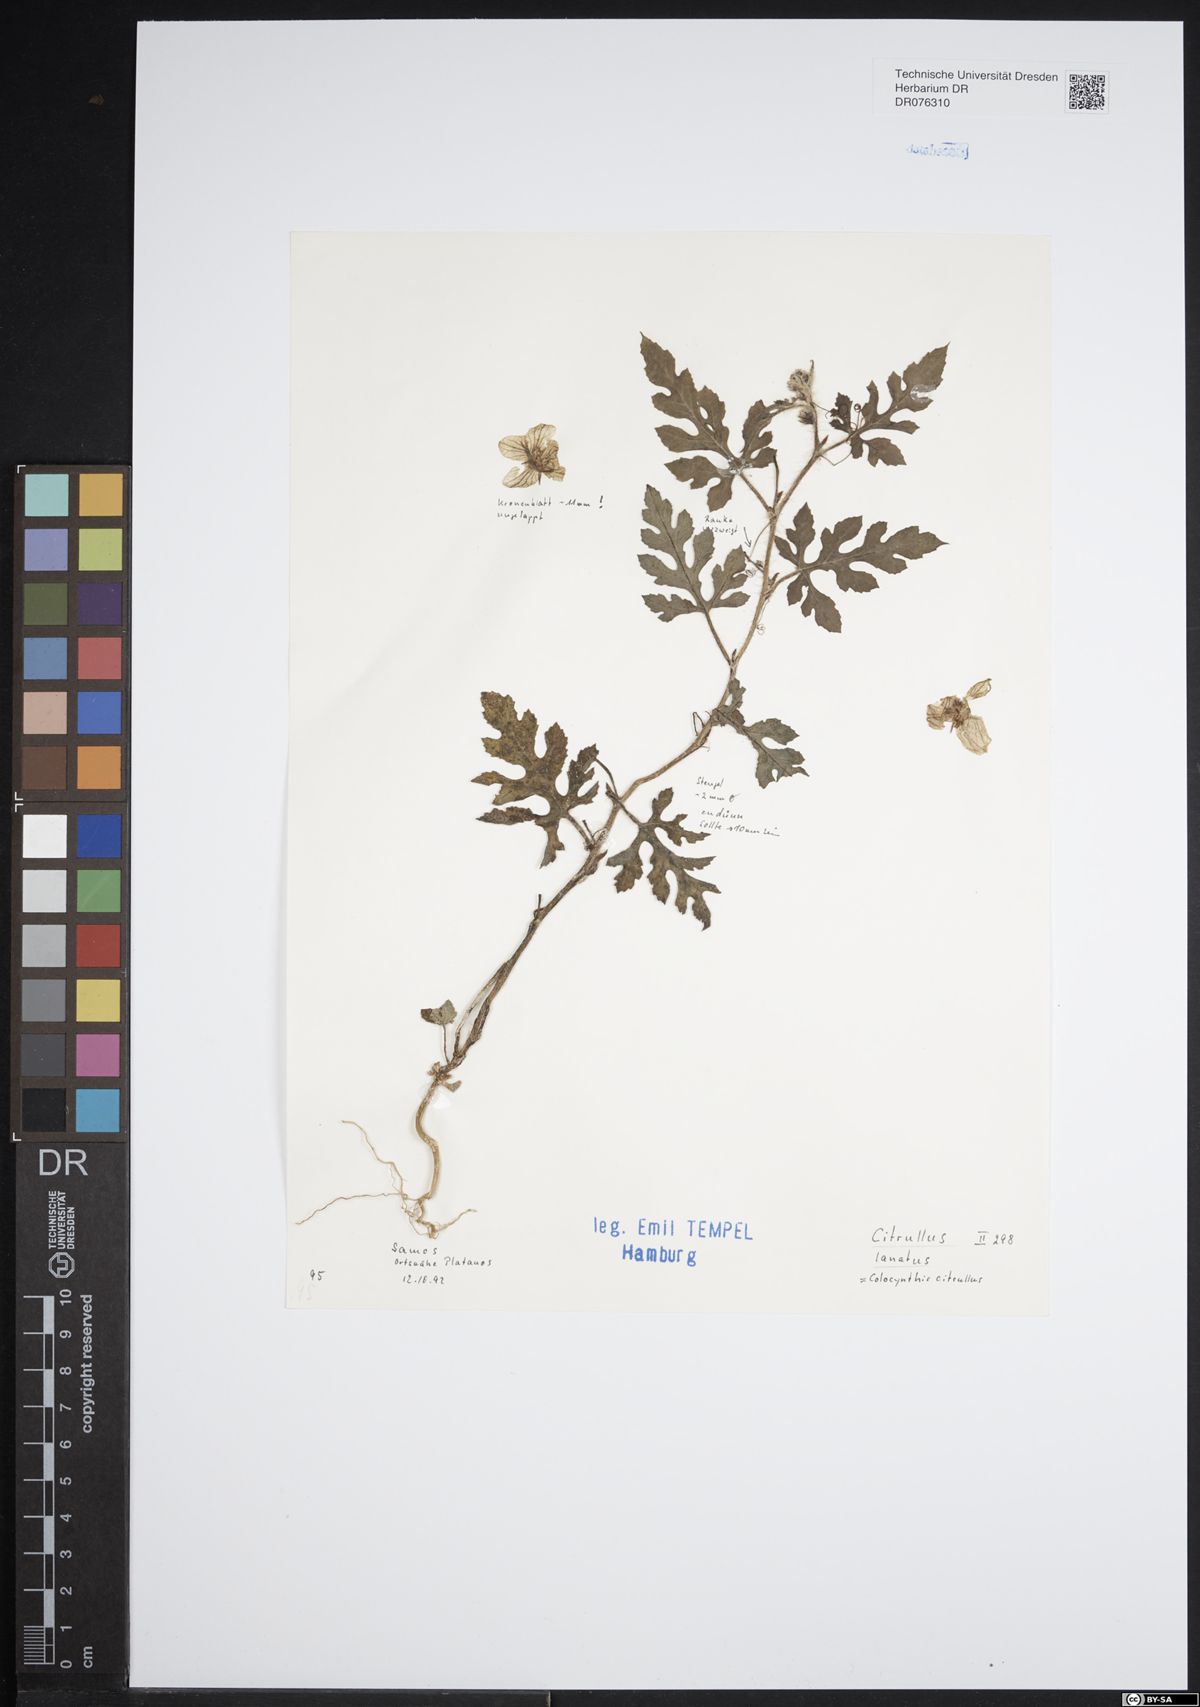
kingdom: Plantae
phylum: Tracheophyta
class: Magnoliopsida
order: Cucurbitales
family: Cucurbitaceae
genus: Citrullus
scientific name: Citrullus lanatus
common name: Watermelon
